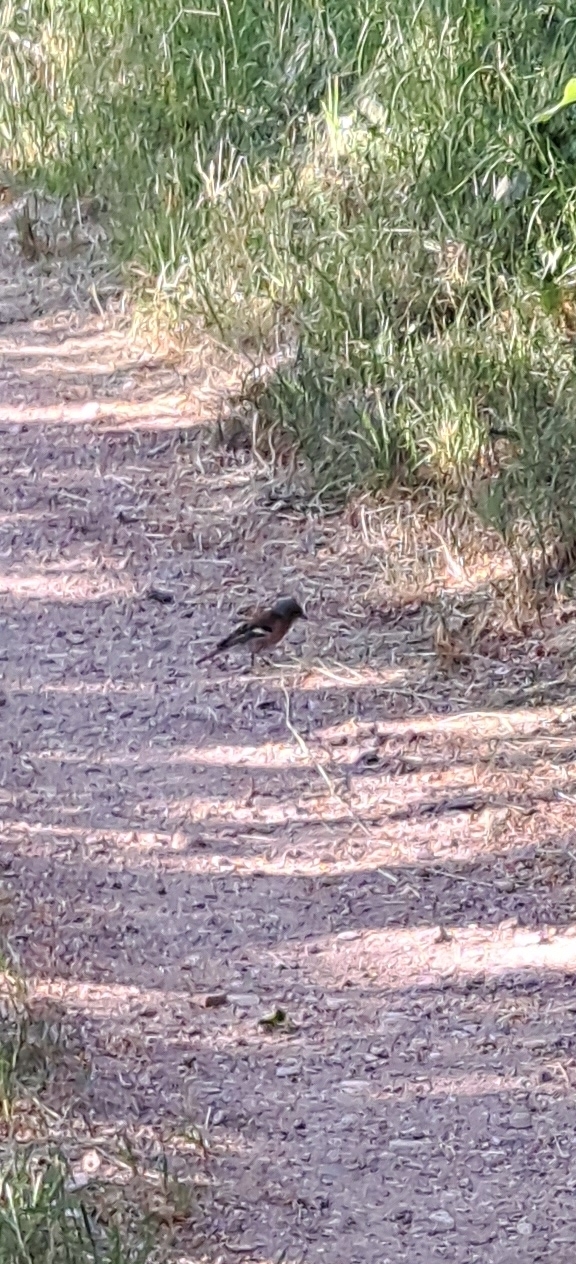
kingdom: Animalia
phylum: Chordata
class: Aves
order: Passeriformes
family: Fringillidae
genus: Fringilla
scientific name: Fringilla coelebs
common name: Bogfinke
